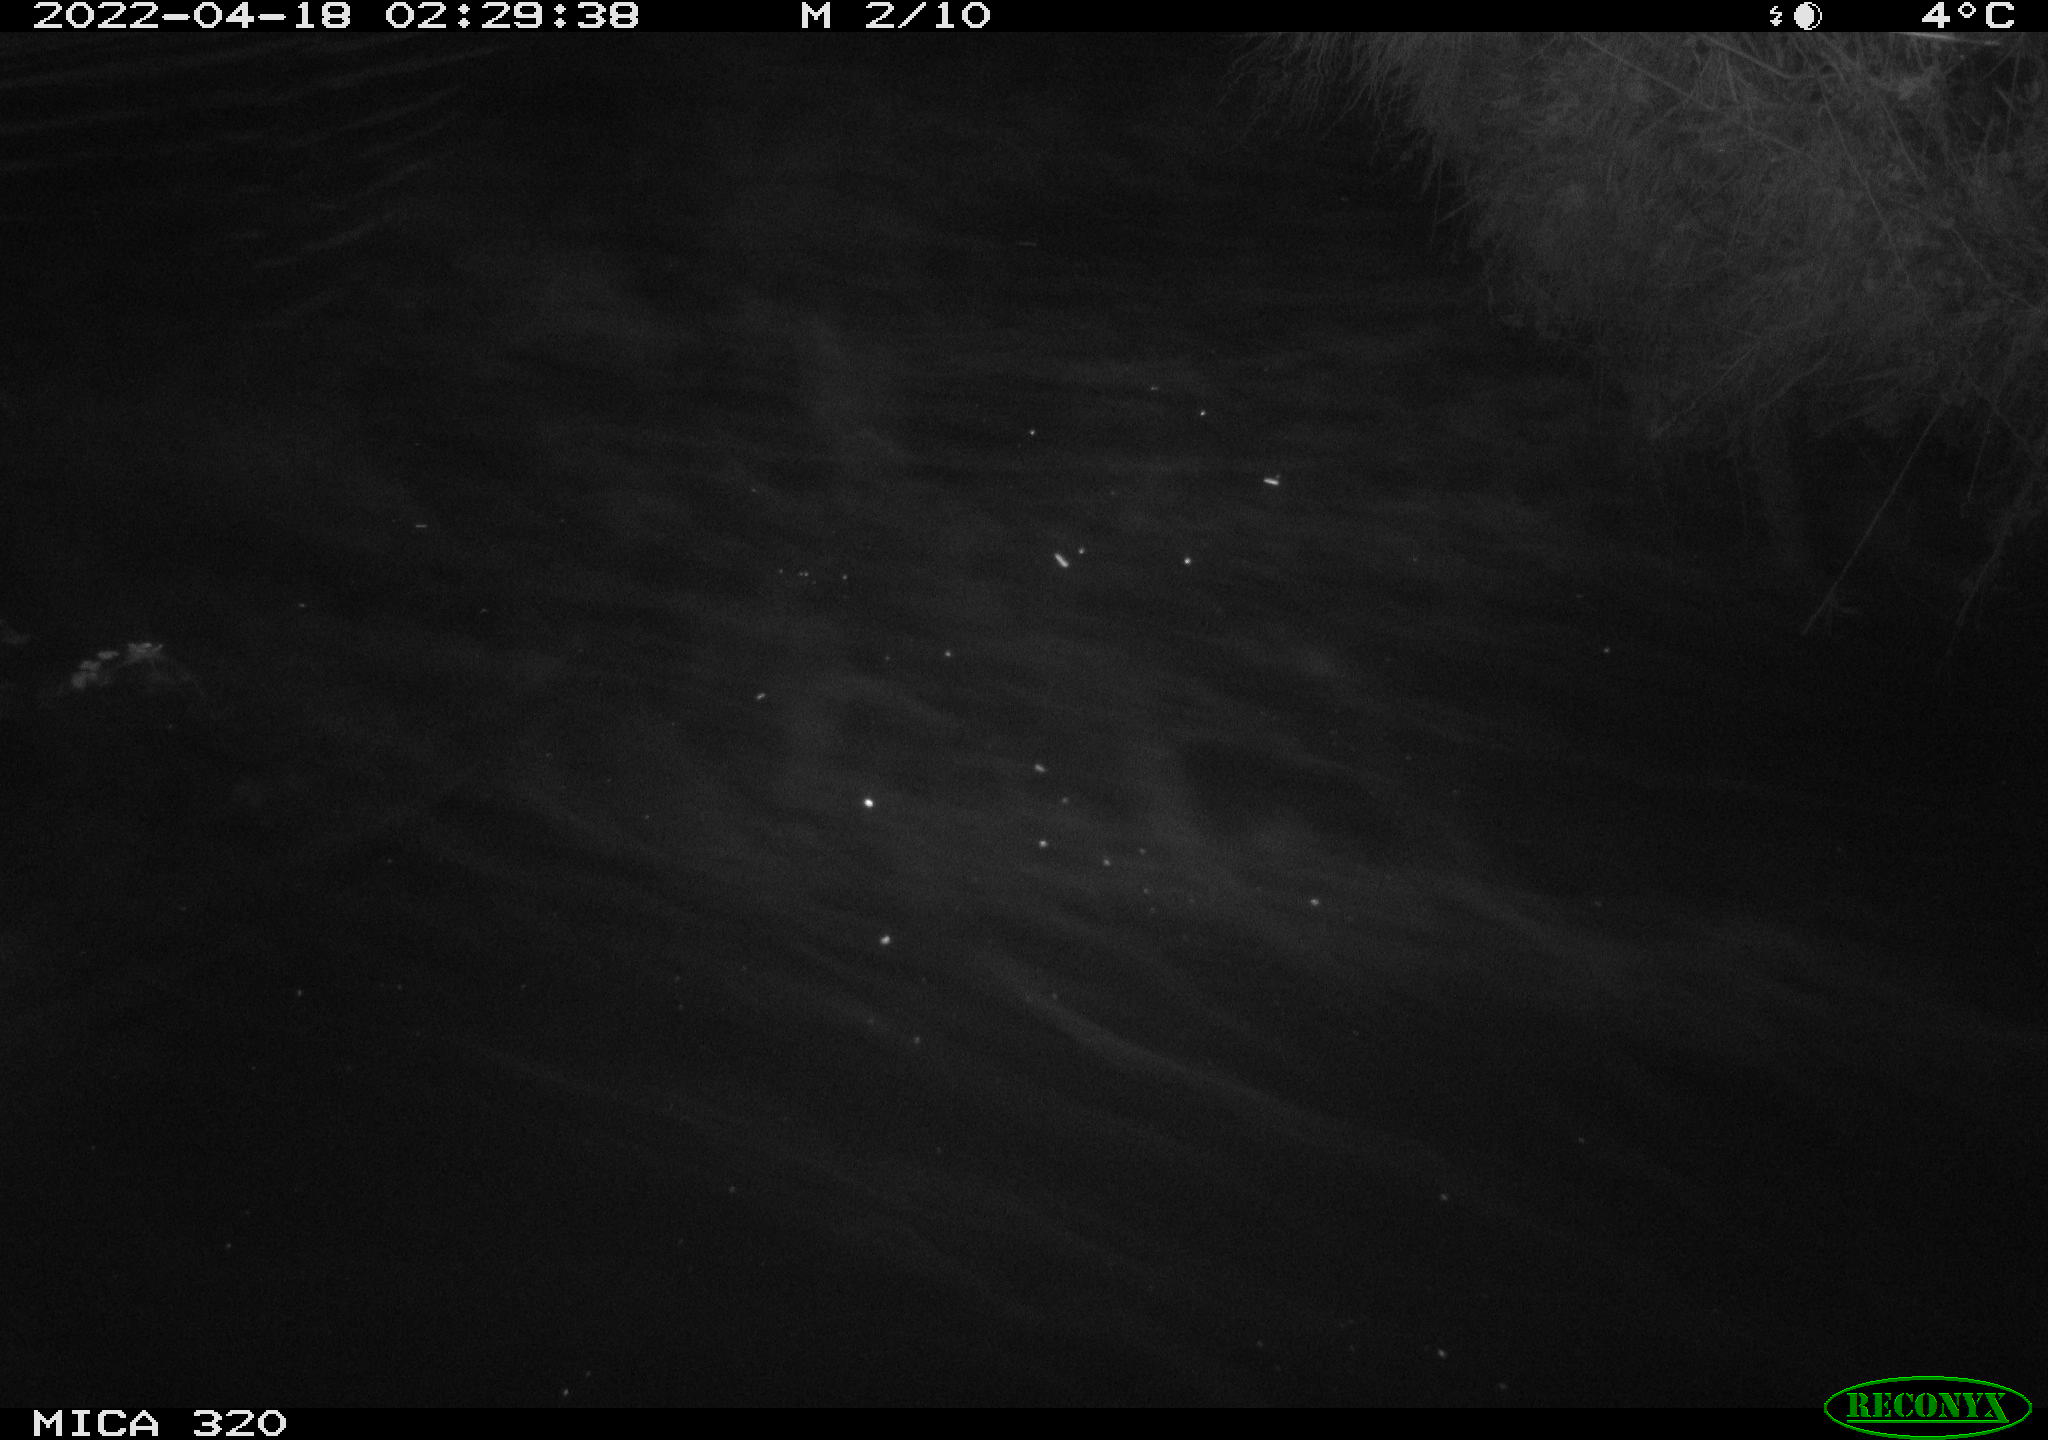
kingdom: Animalia
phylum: Chordata
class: Aves
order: Anseriformes
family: Anatidae
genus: Anas
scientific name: Anas platyrhynchos
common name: Mallard
